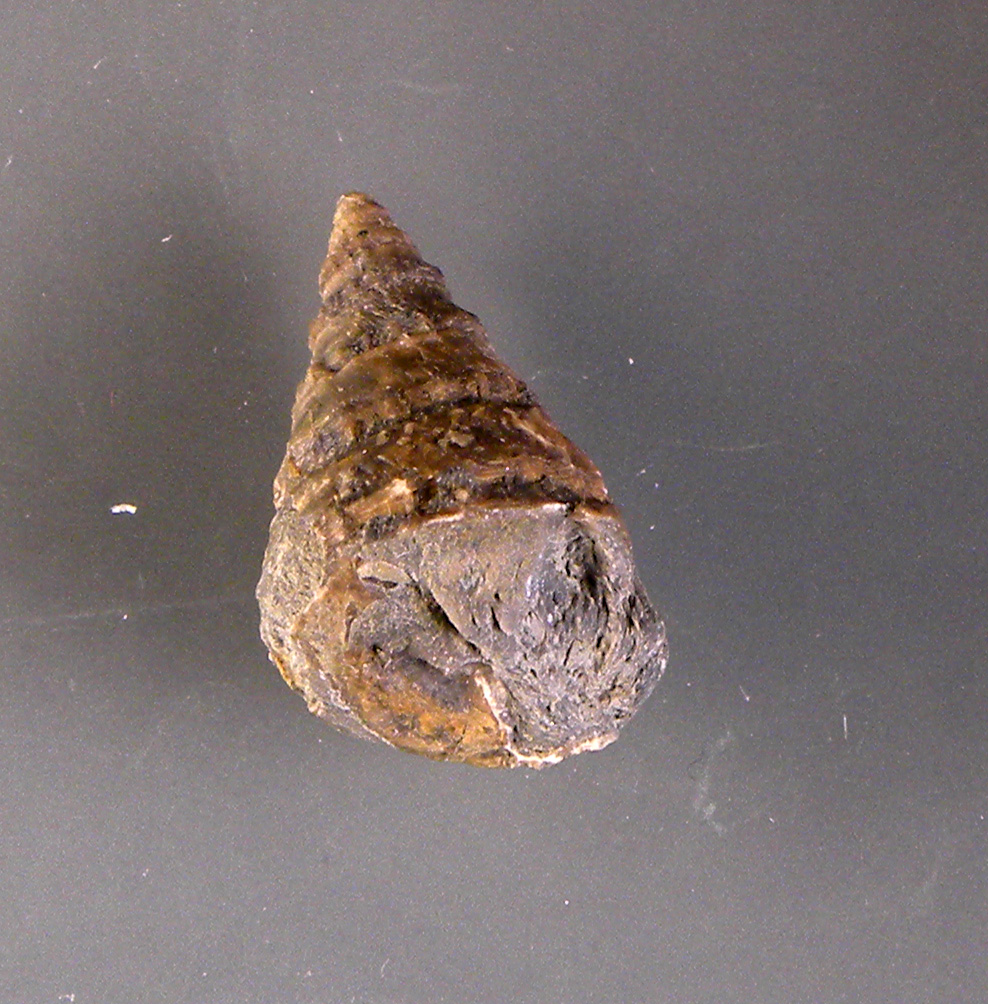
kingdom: Animalia
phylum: Mollusca
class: Gastropoda
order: Trochida
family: Nododelphinulidae
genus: Costatrochus
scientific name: Costatrochus subduplicatus
